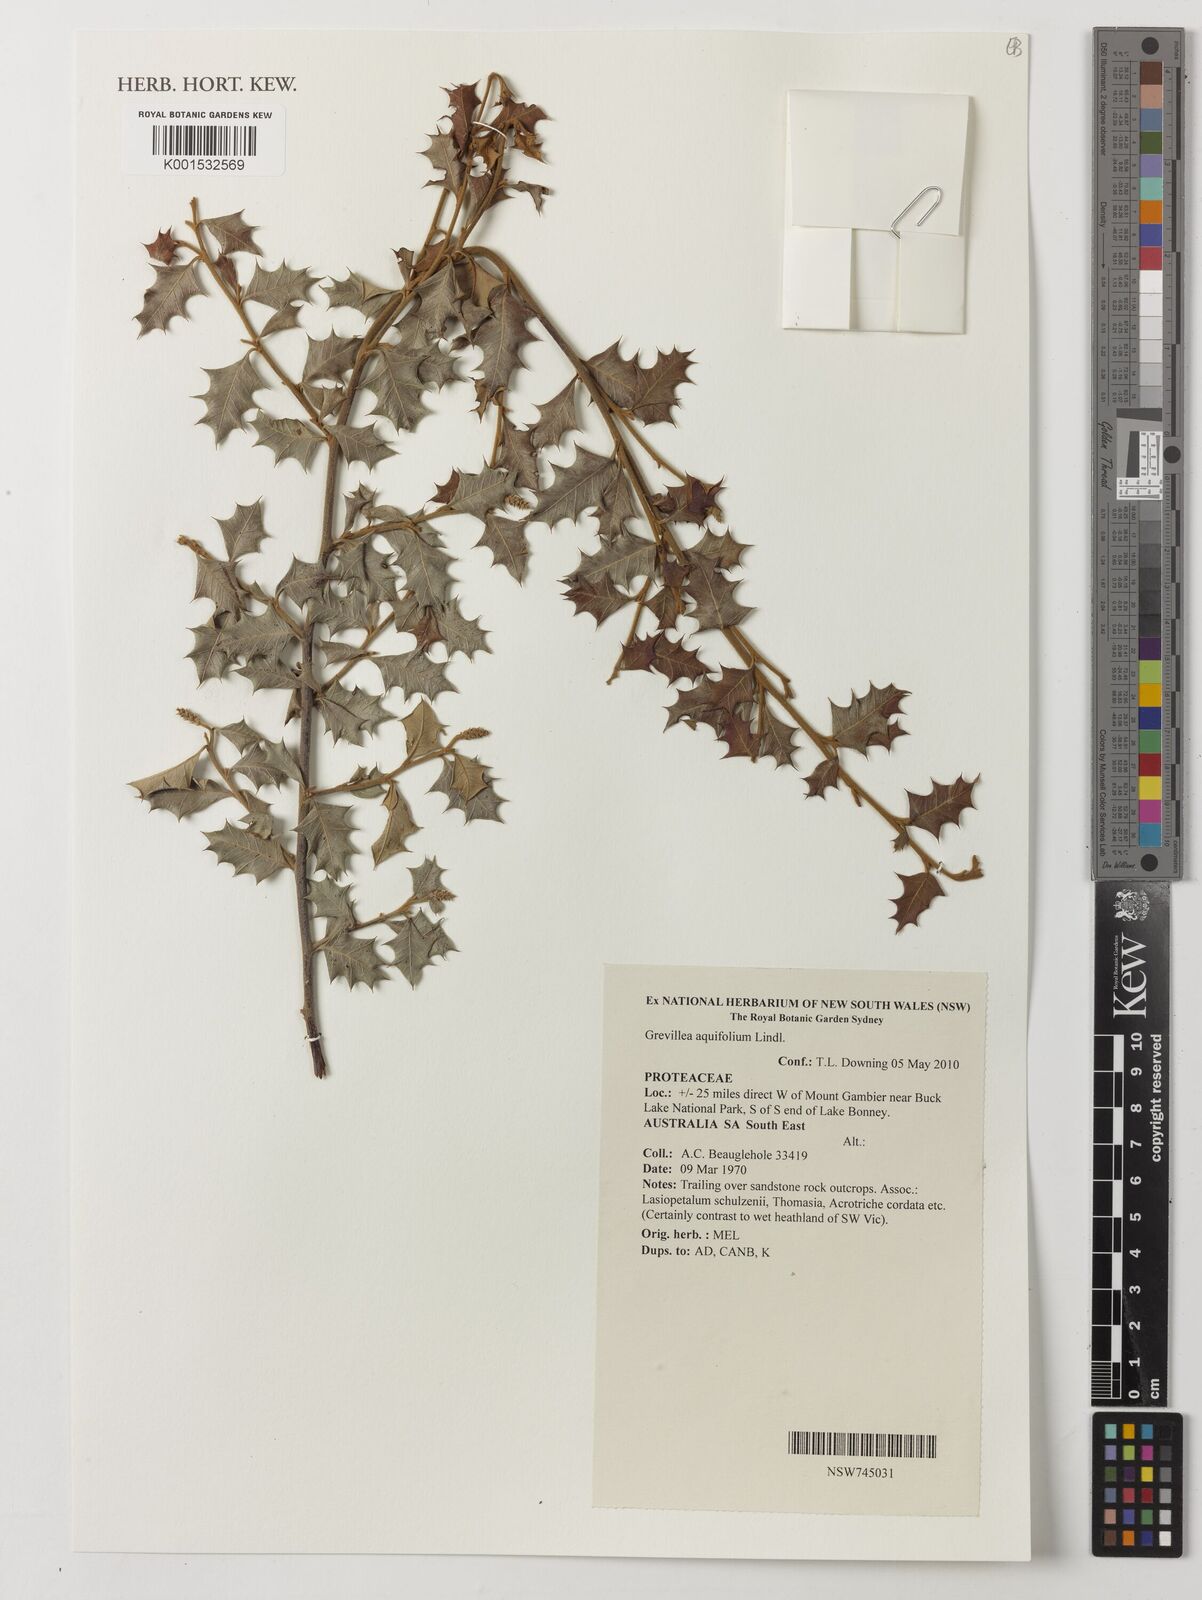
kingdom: Plantae
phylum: Tracheophyta
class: Magnoliopsida
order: Proteales
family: Proteaceae
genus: Grevillea
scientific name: Grevillea aquifolium
